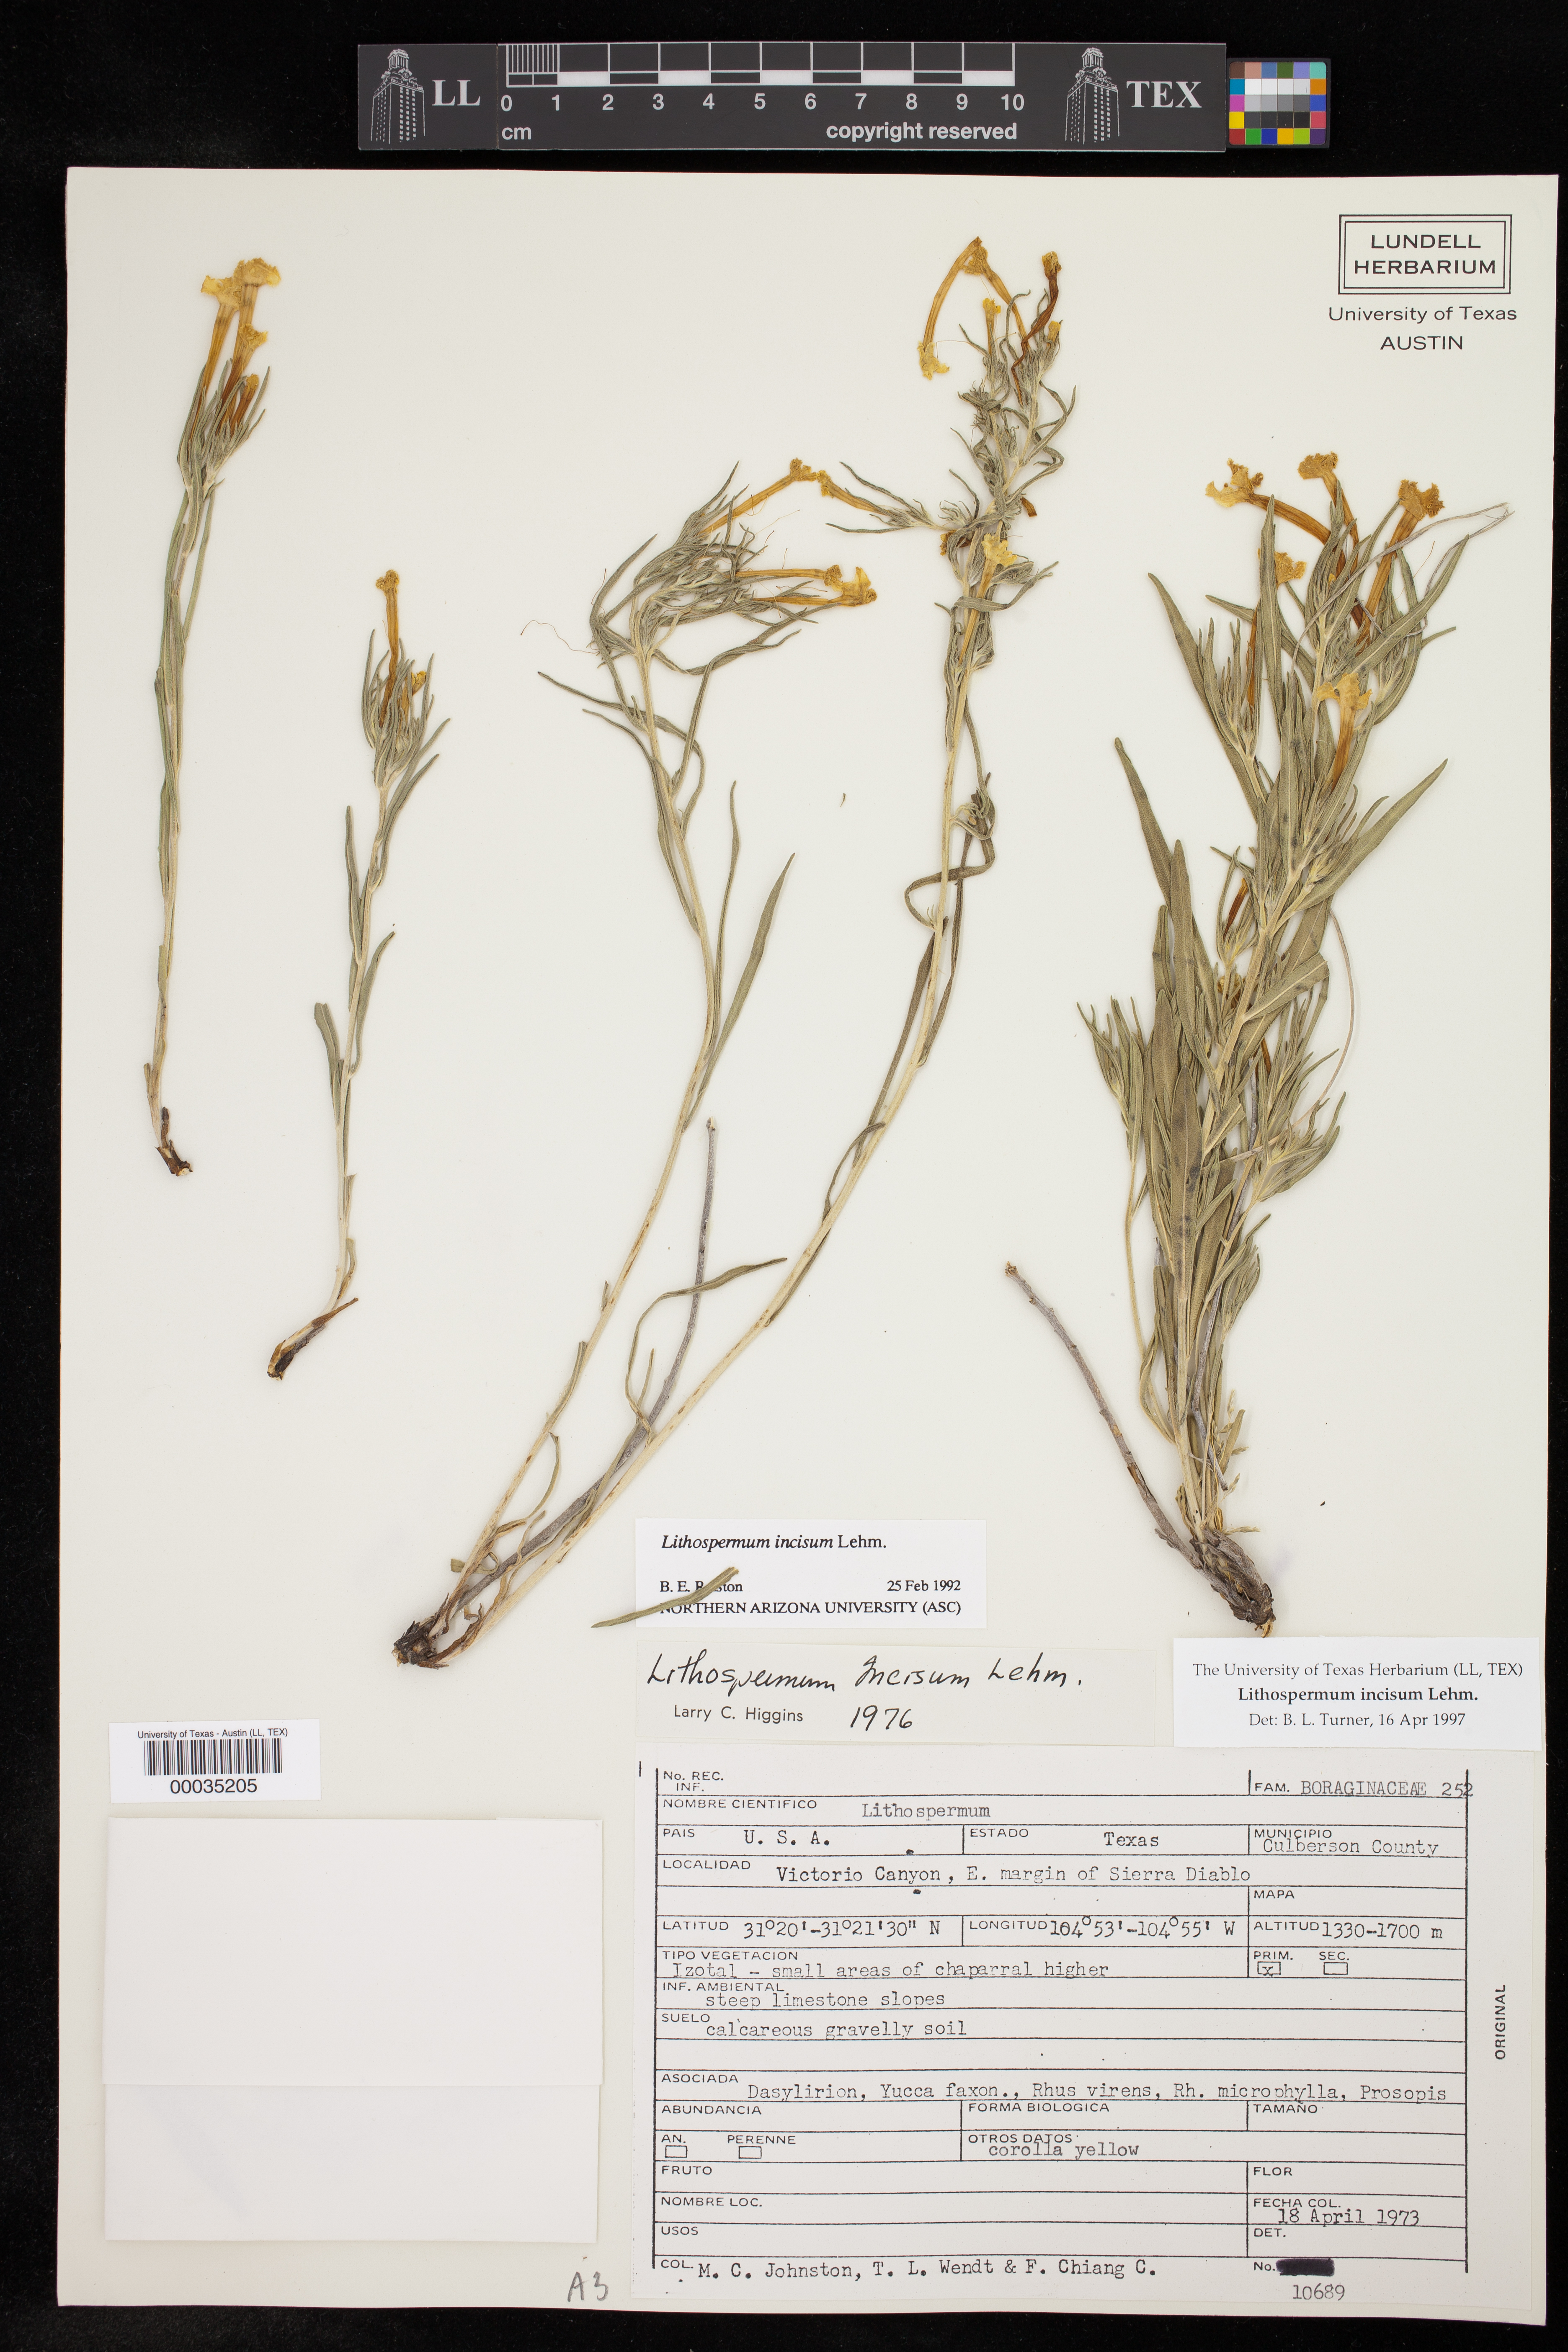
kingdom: Plantae
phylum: Tracheophyta
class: Magnoliopsida
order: Boraginales
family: Boraginaceae
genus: Lithospermum
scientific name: Lithospermum incisum
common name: Fringed gromwell
